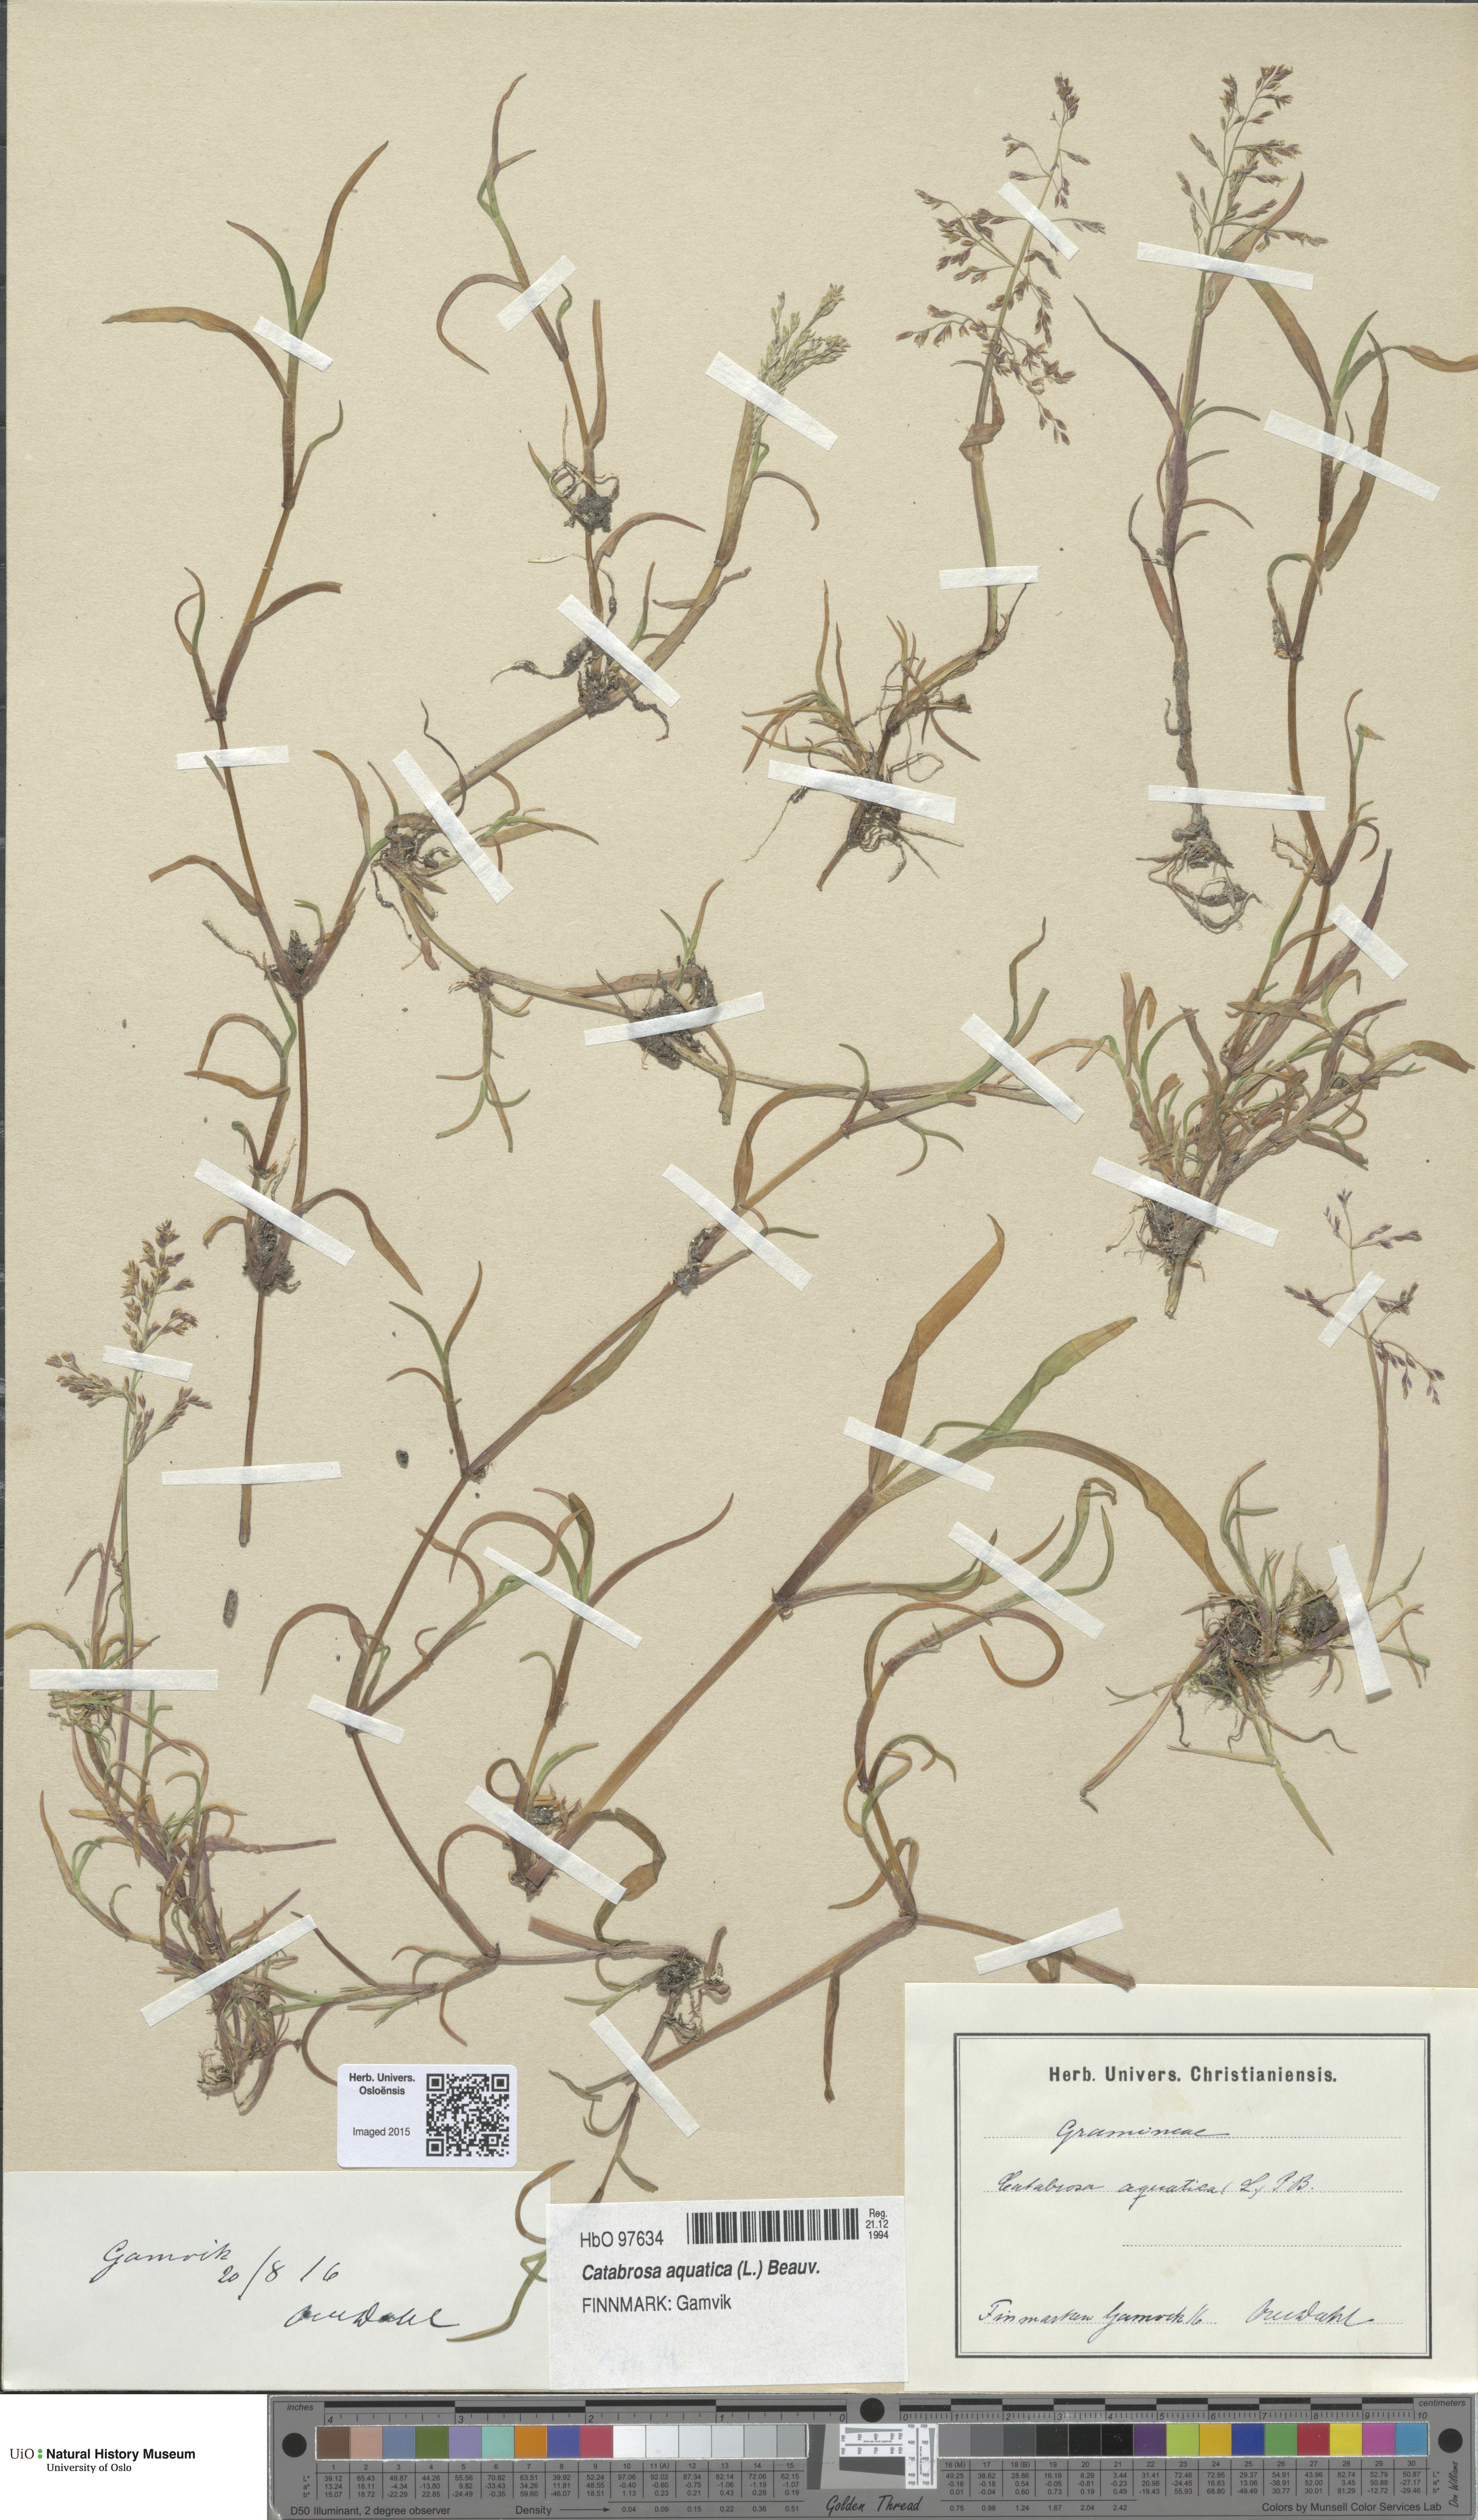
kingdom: Plantae
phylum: Tracheophyta
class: Liliopsida
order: Poales
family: Poaceae
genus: Catabrosa
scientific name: Catabrosa aquatica
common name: Whorl-grass
